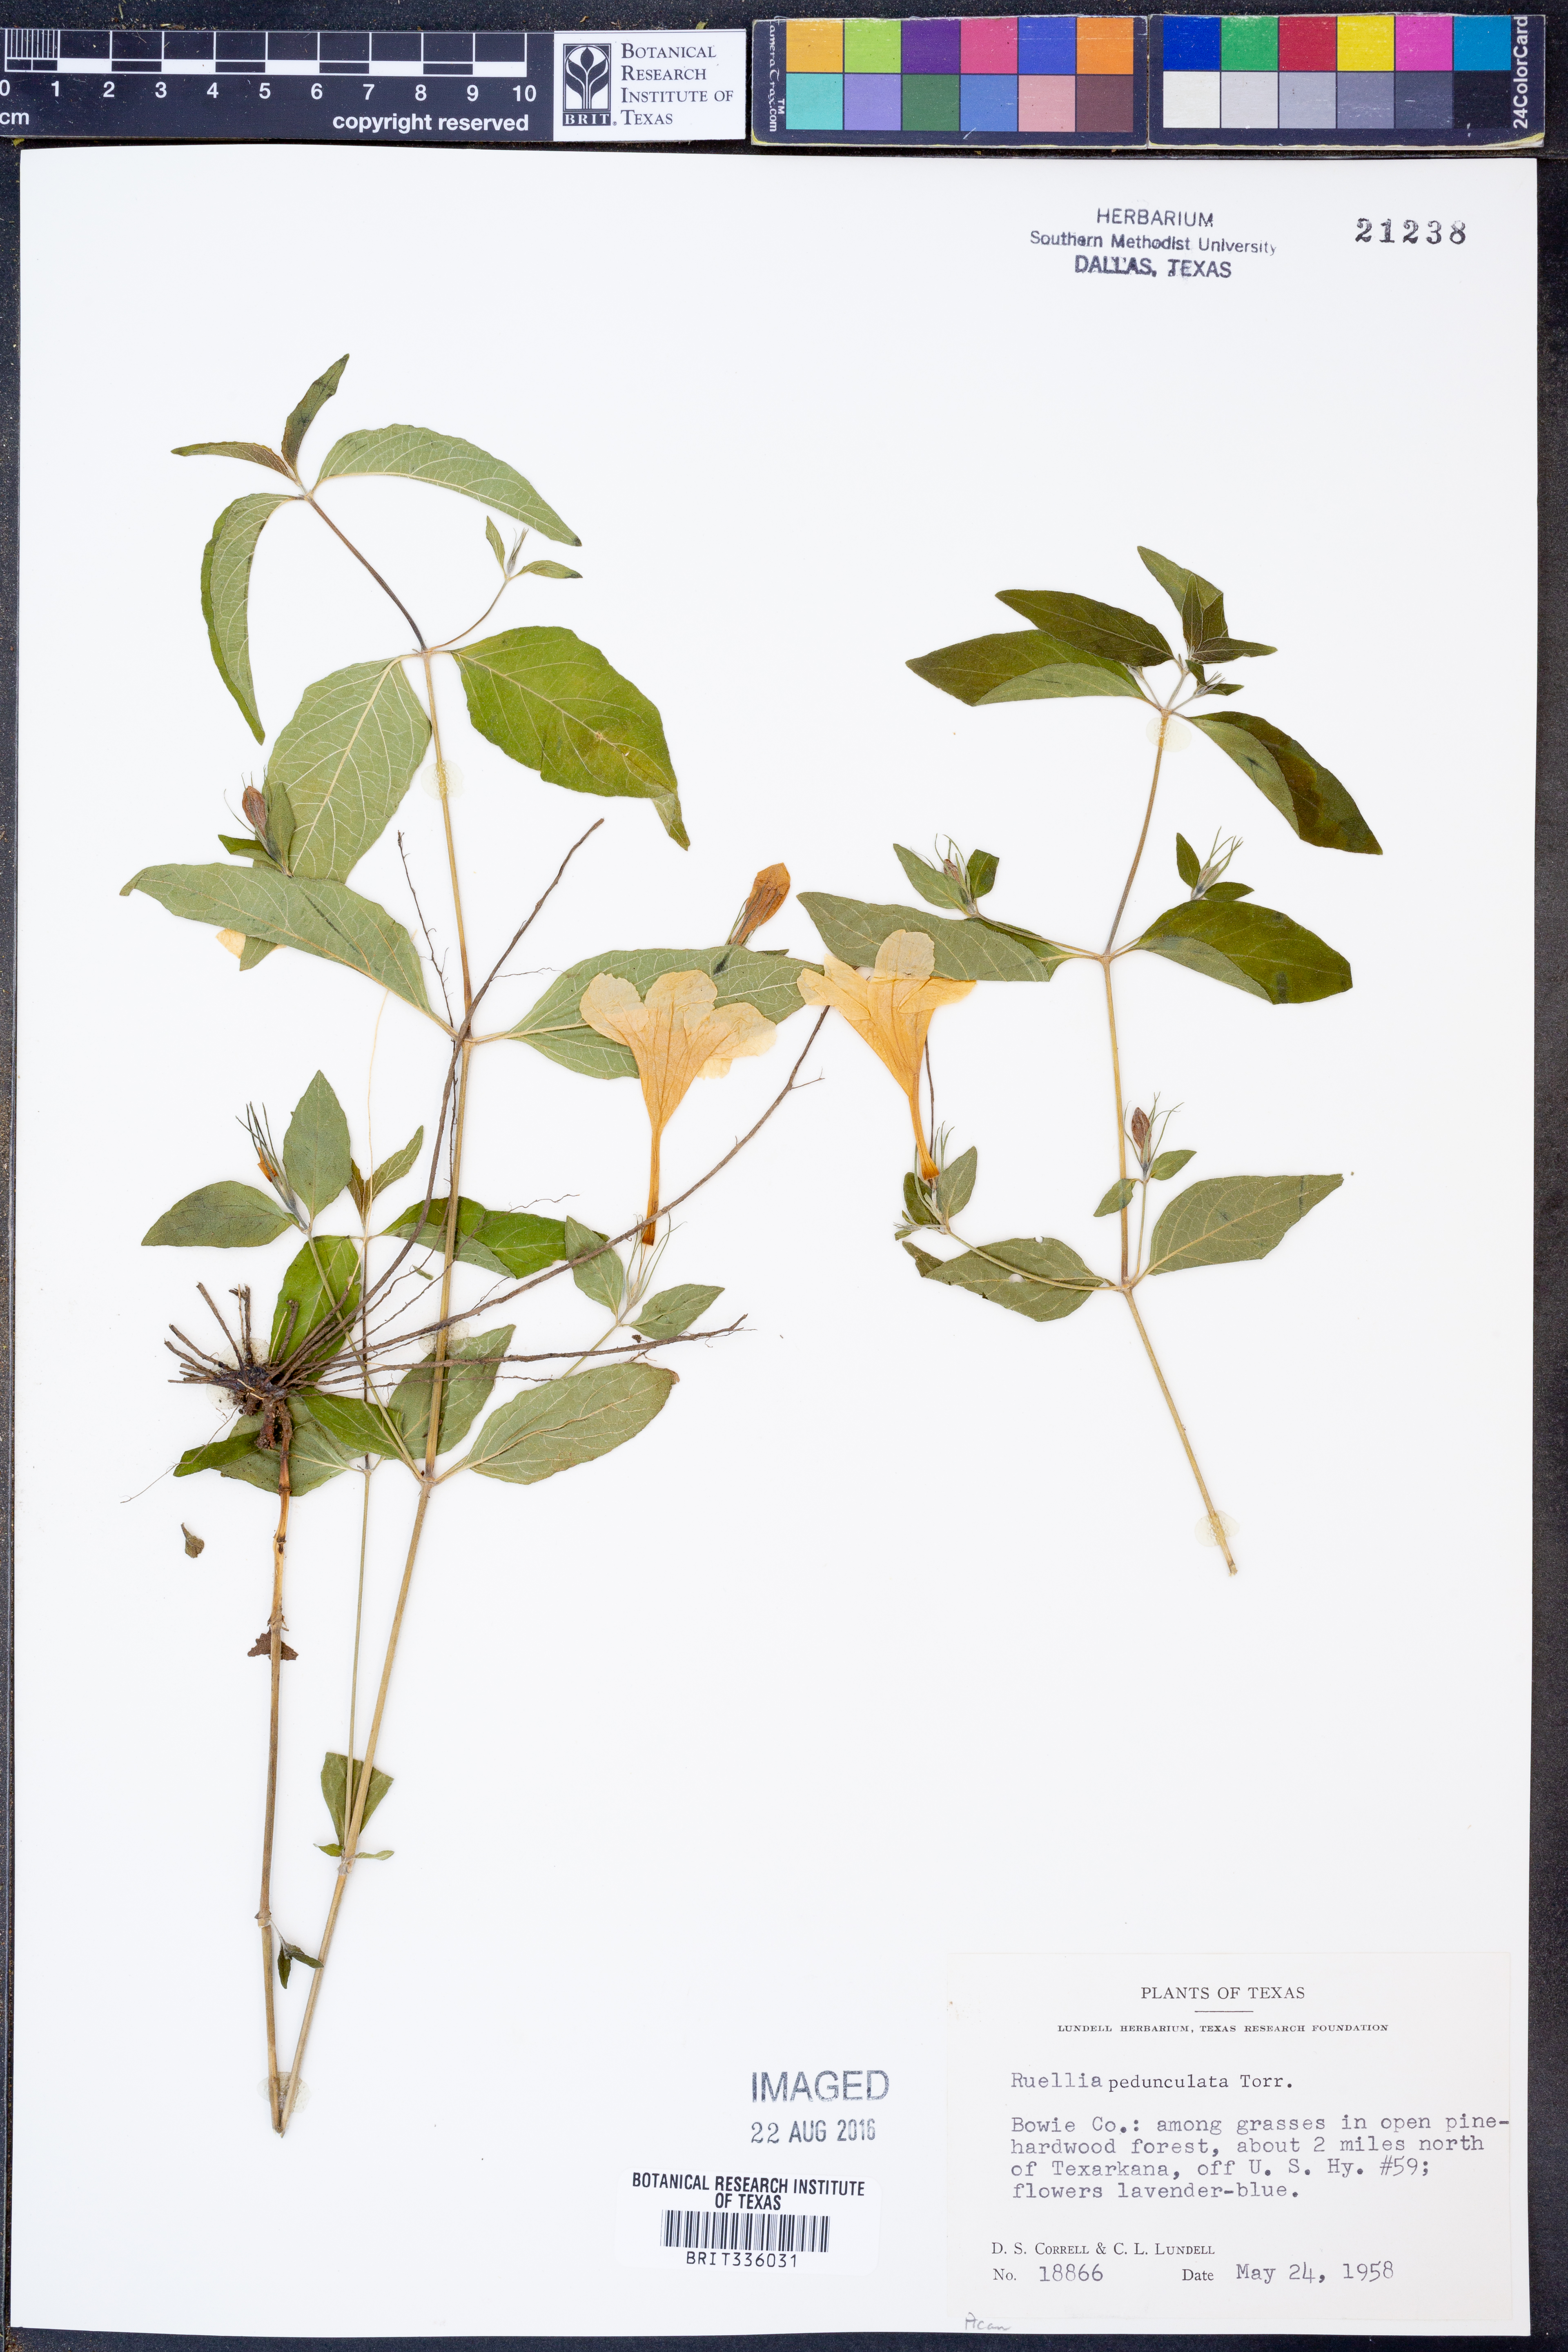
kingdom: Plantae
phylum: Tracheophyta
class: Magnoliopsida
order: Lamiales
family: Acanthaceae
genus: Ruellia
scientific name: Ruellia pedunculata
